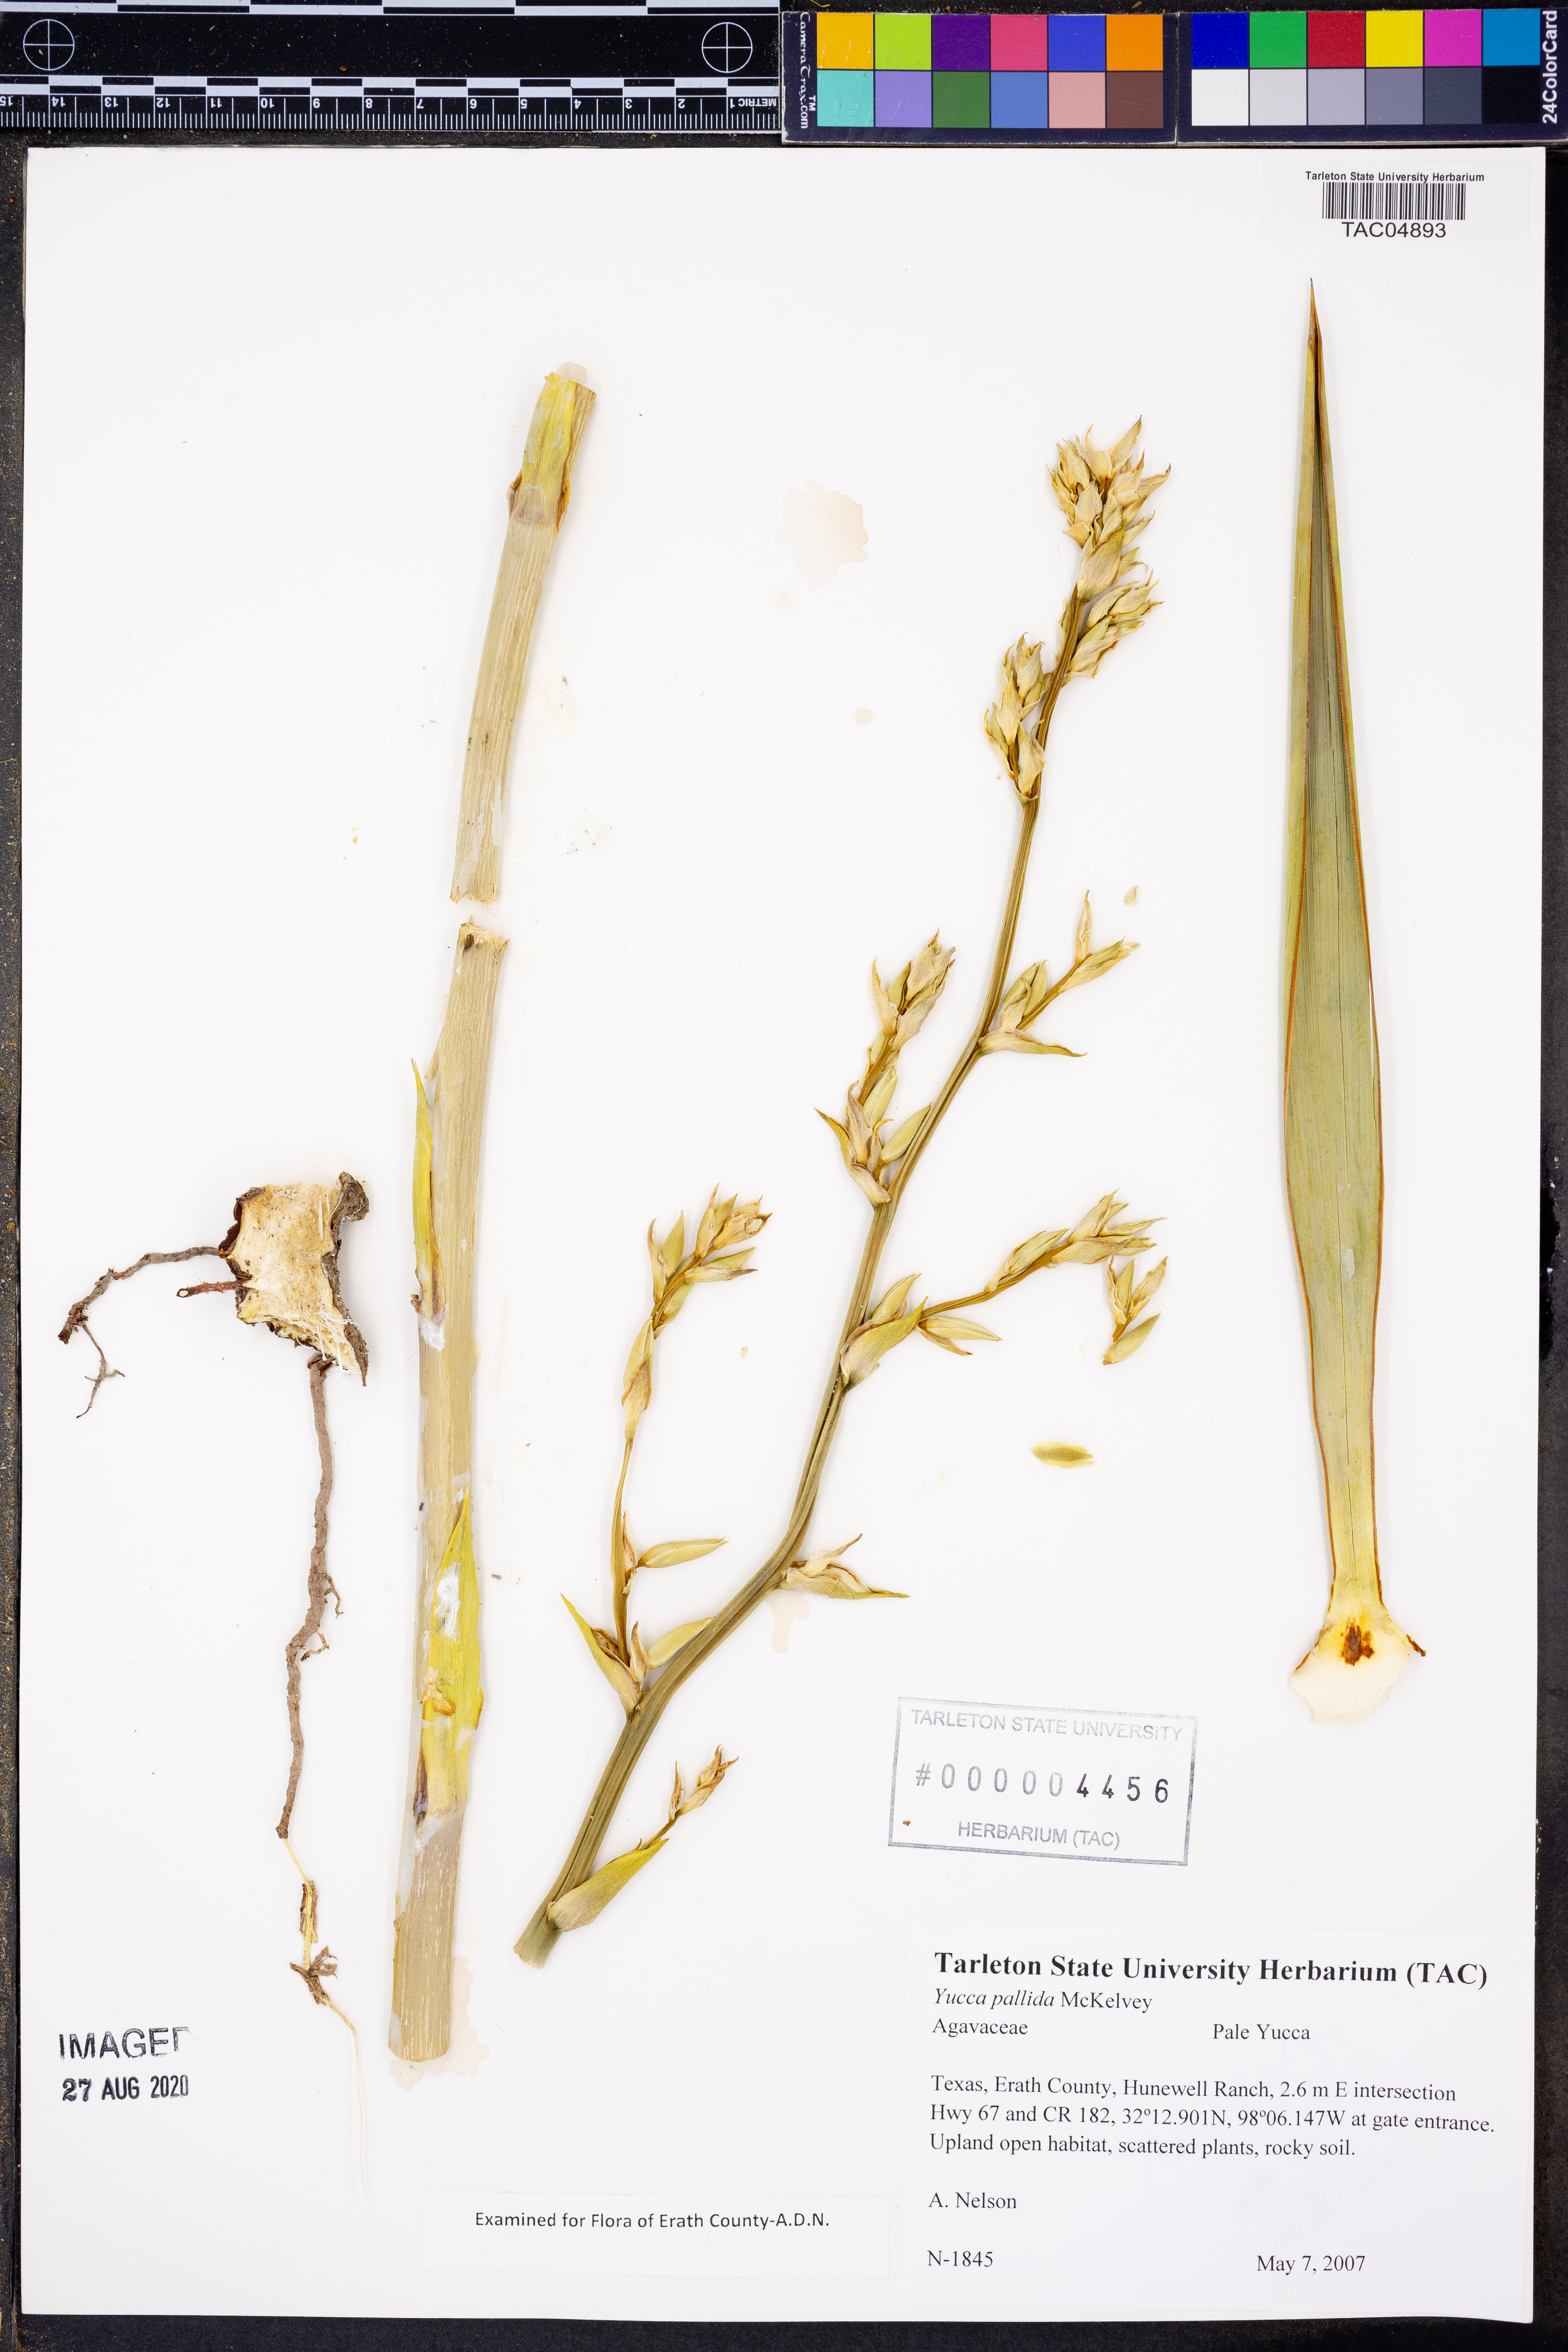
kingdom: Plantae
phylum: Tracheophyta
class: Liliopsida
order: Asparagales
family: Asparagaceae
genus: Yucca
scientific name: Yucca pallida
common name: Pale leaf yucca
